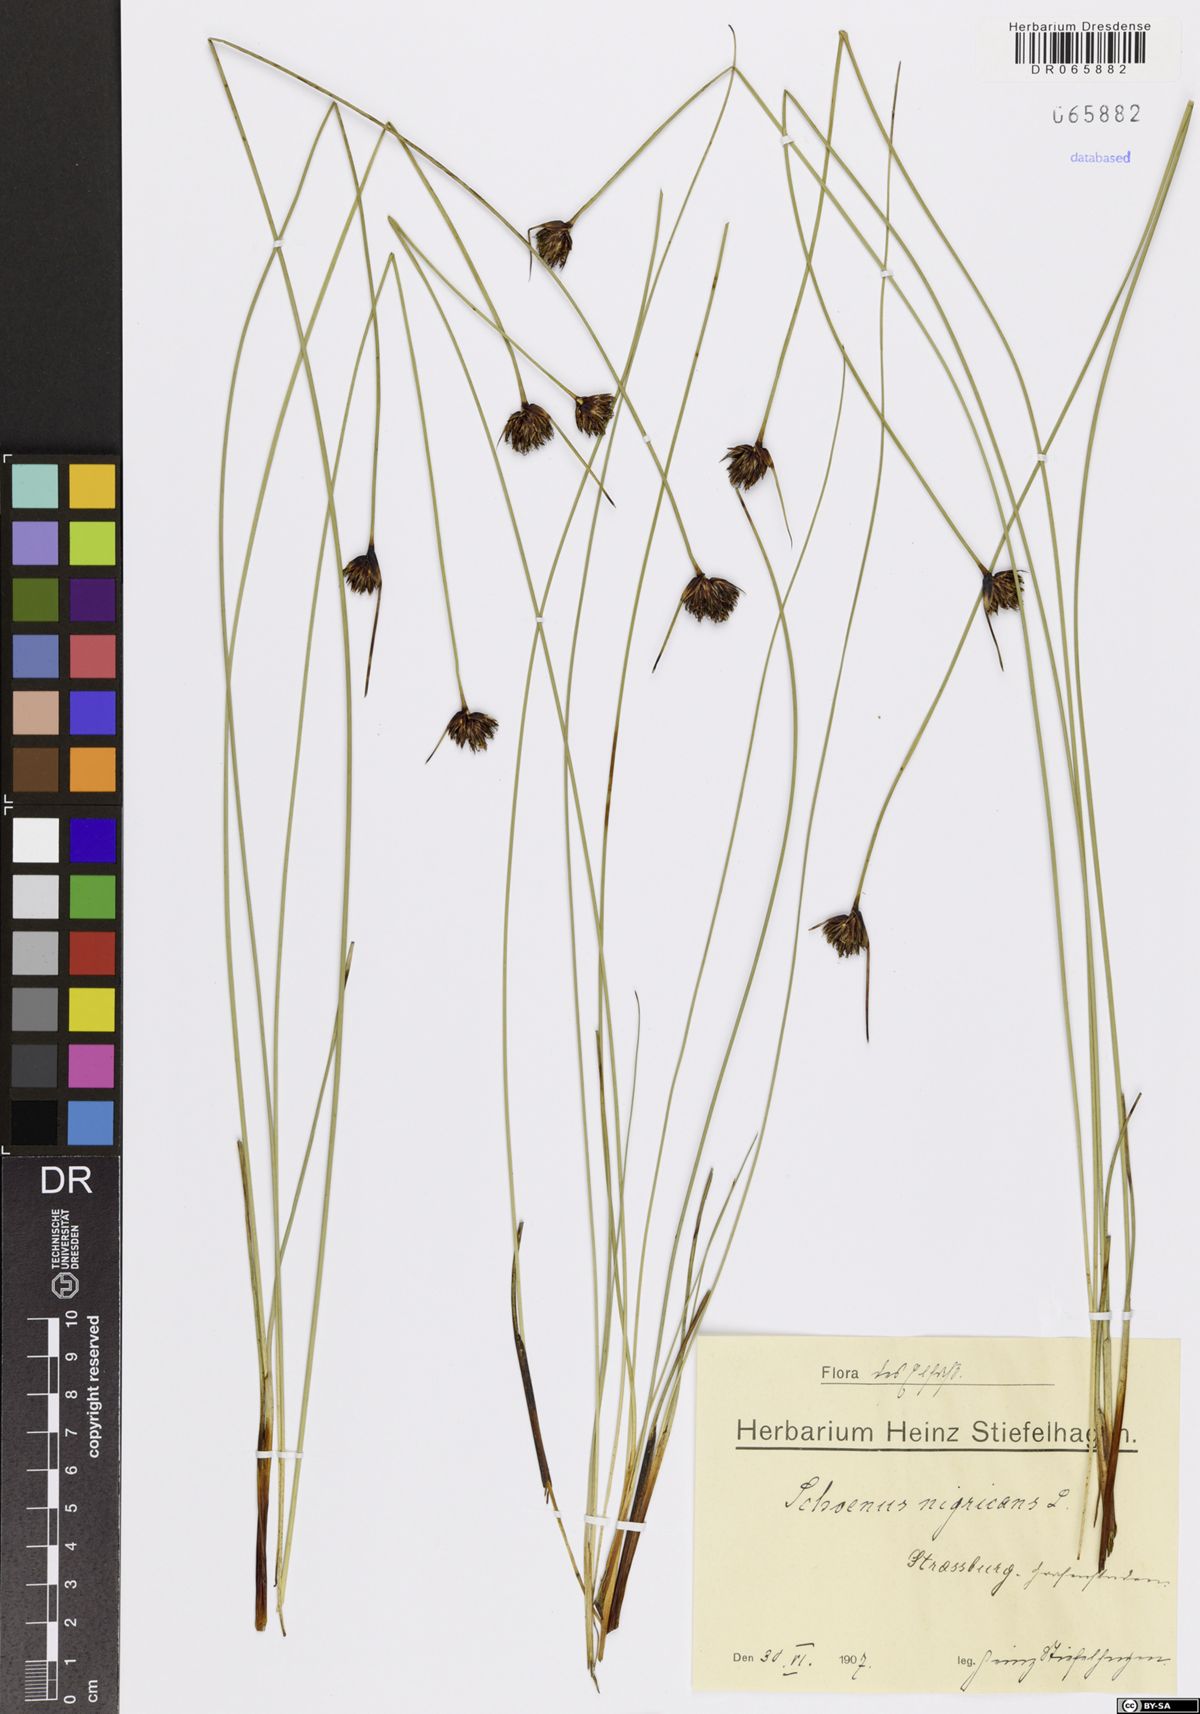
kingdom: Plantae
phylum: Tracheophyta
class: Liliopsida
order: Poales
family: Cyperaceae
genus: Schoenus
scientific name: Schoenus nigricans
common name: Black bog-rush
